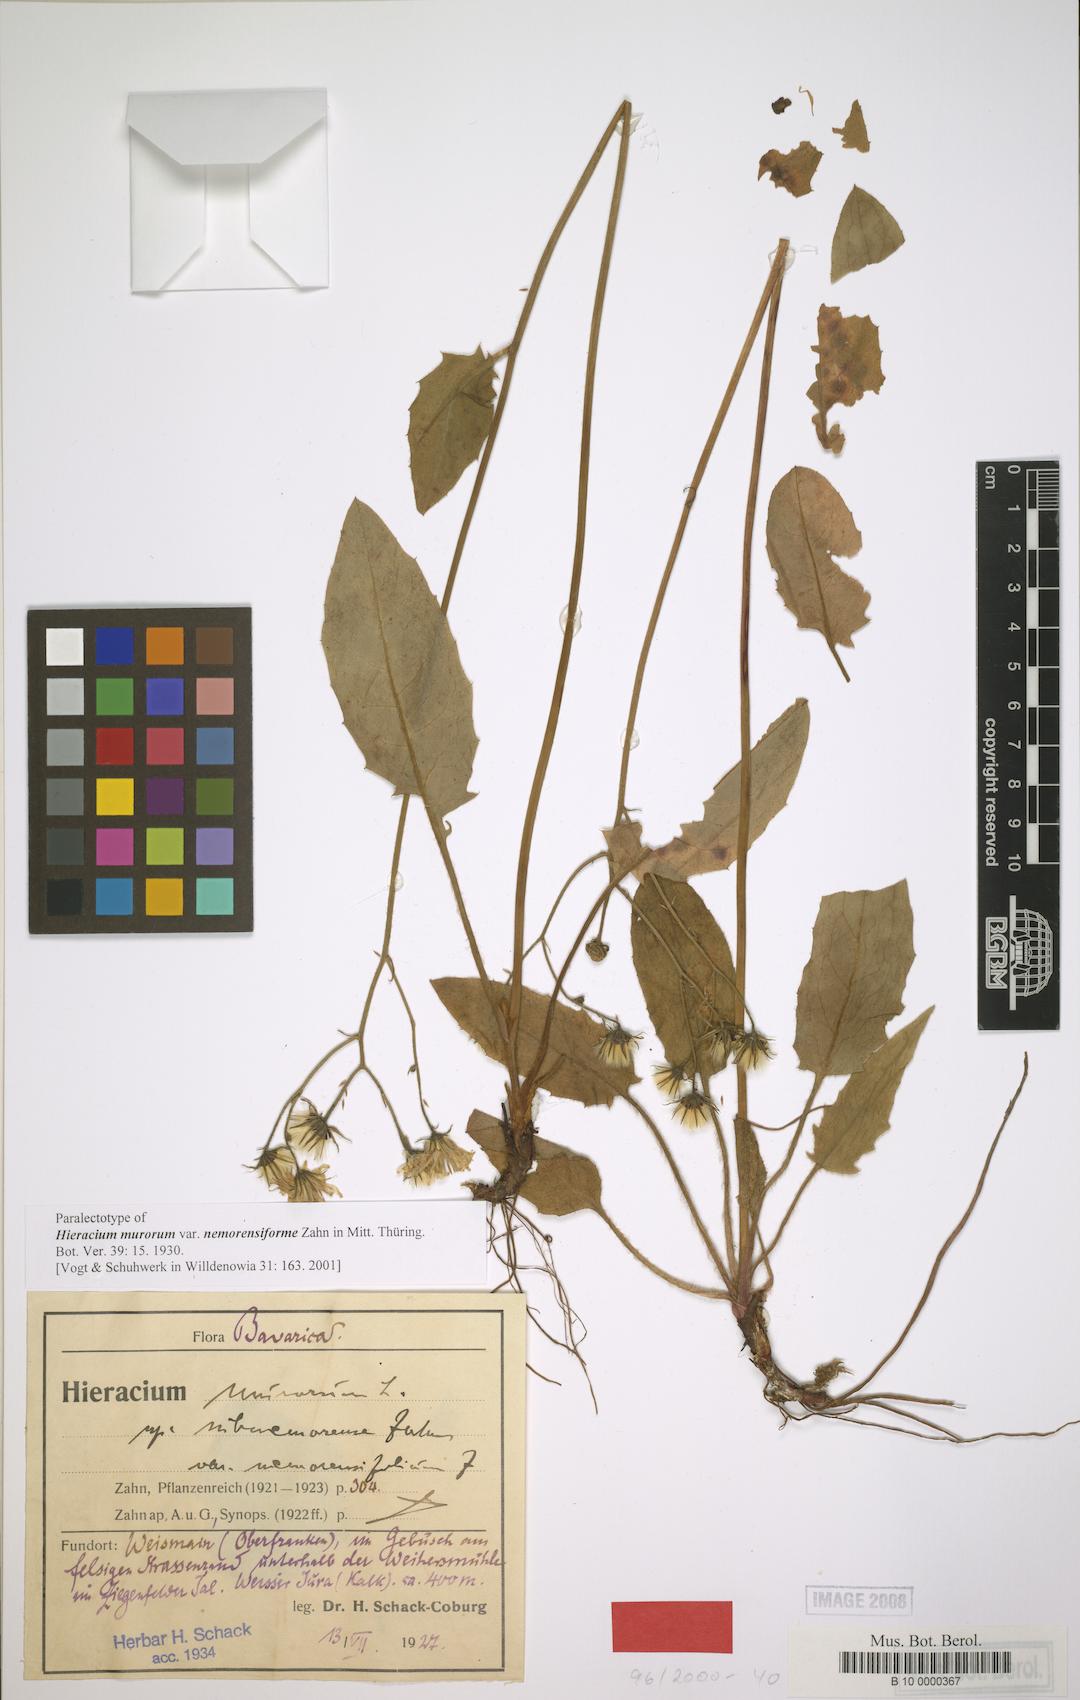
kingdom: Plantae
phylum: Tracheophyta
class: Magnoliopsida
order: Asterales
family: Asteraceae
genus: Hieracium
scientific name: Hieracium murorum
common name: Wall hawkweed
